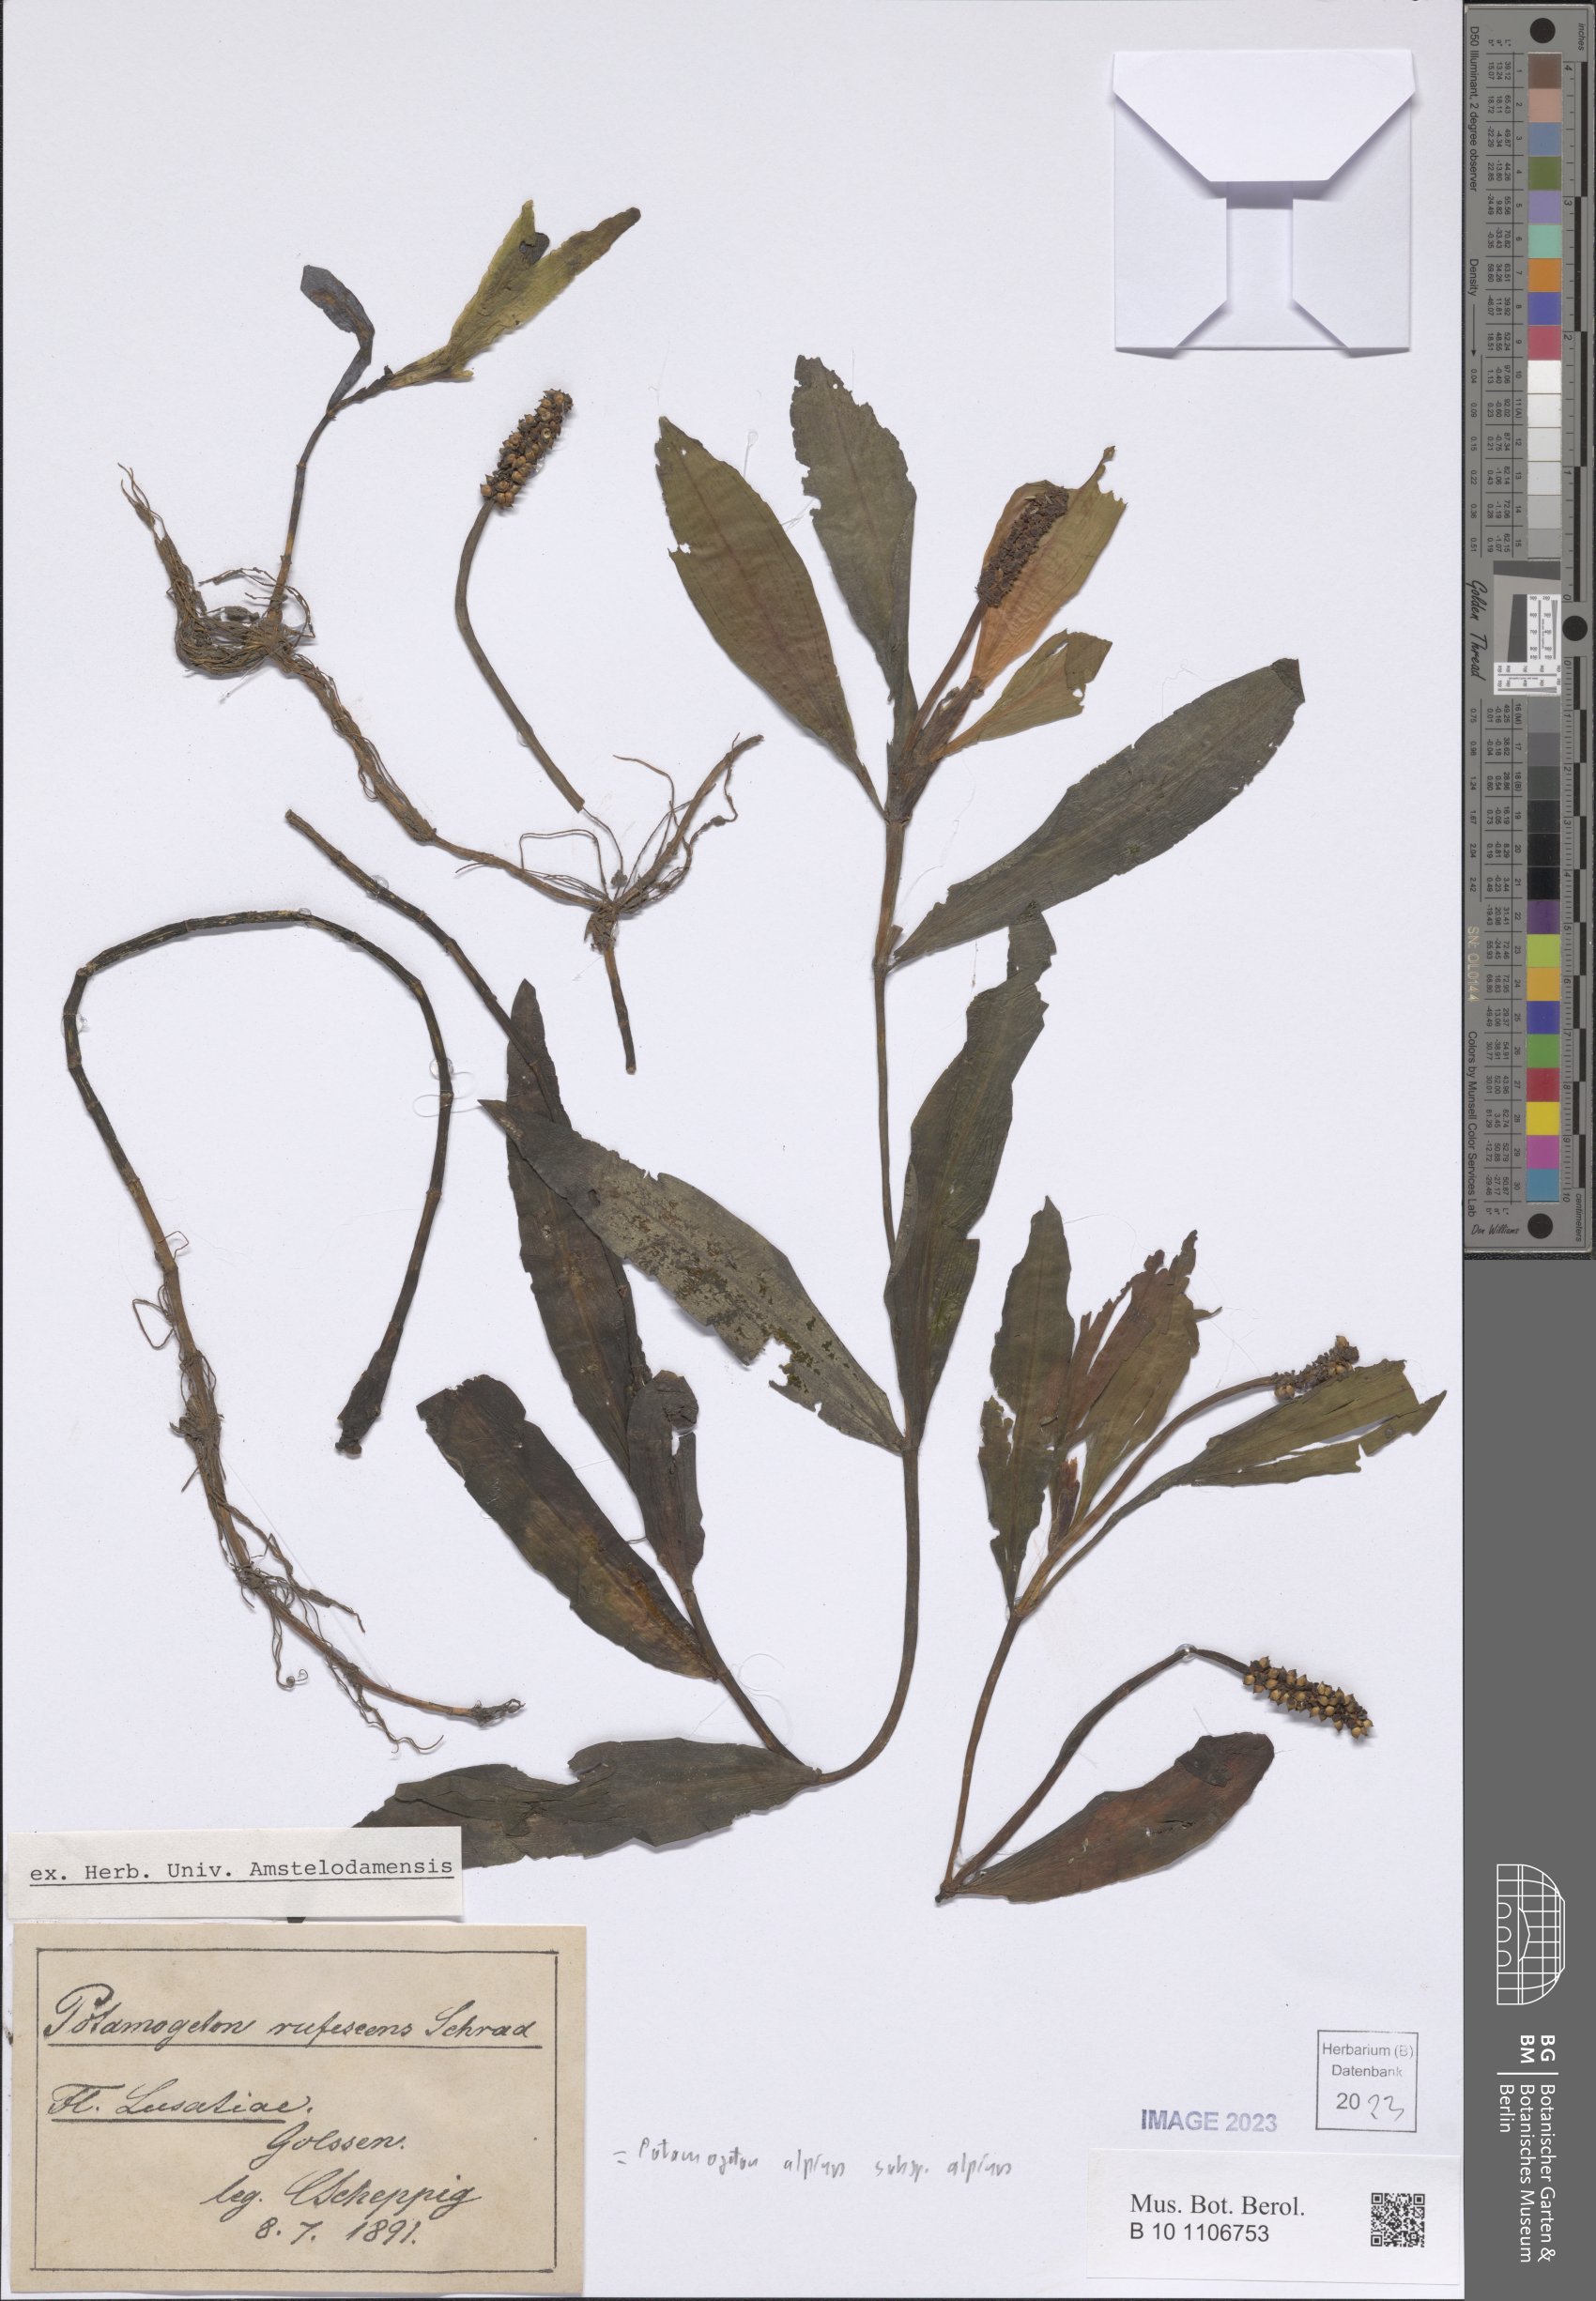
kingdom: Plantae
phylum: Tracheophyta
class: Liliopsida
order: Alismatales
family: Potamogetonaceae
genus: Potamogeton
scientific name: Potamogeton alpinus
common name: Red pondweed
